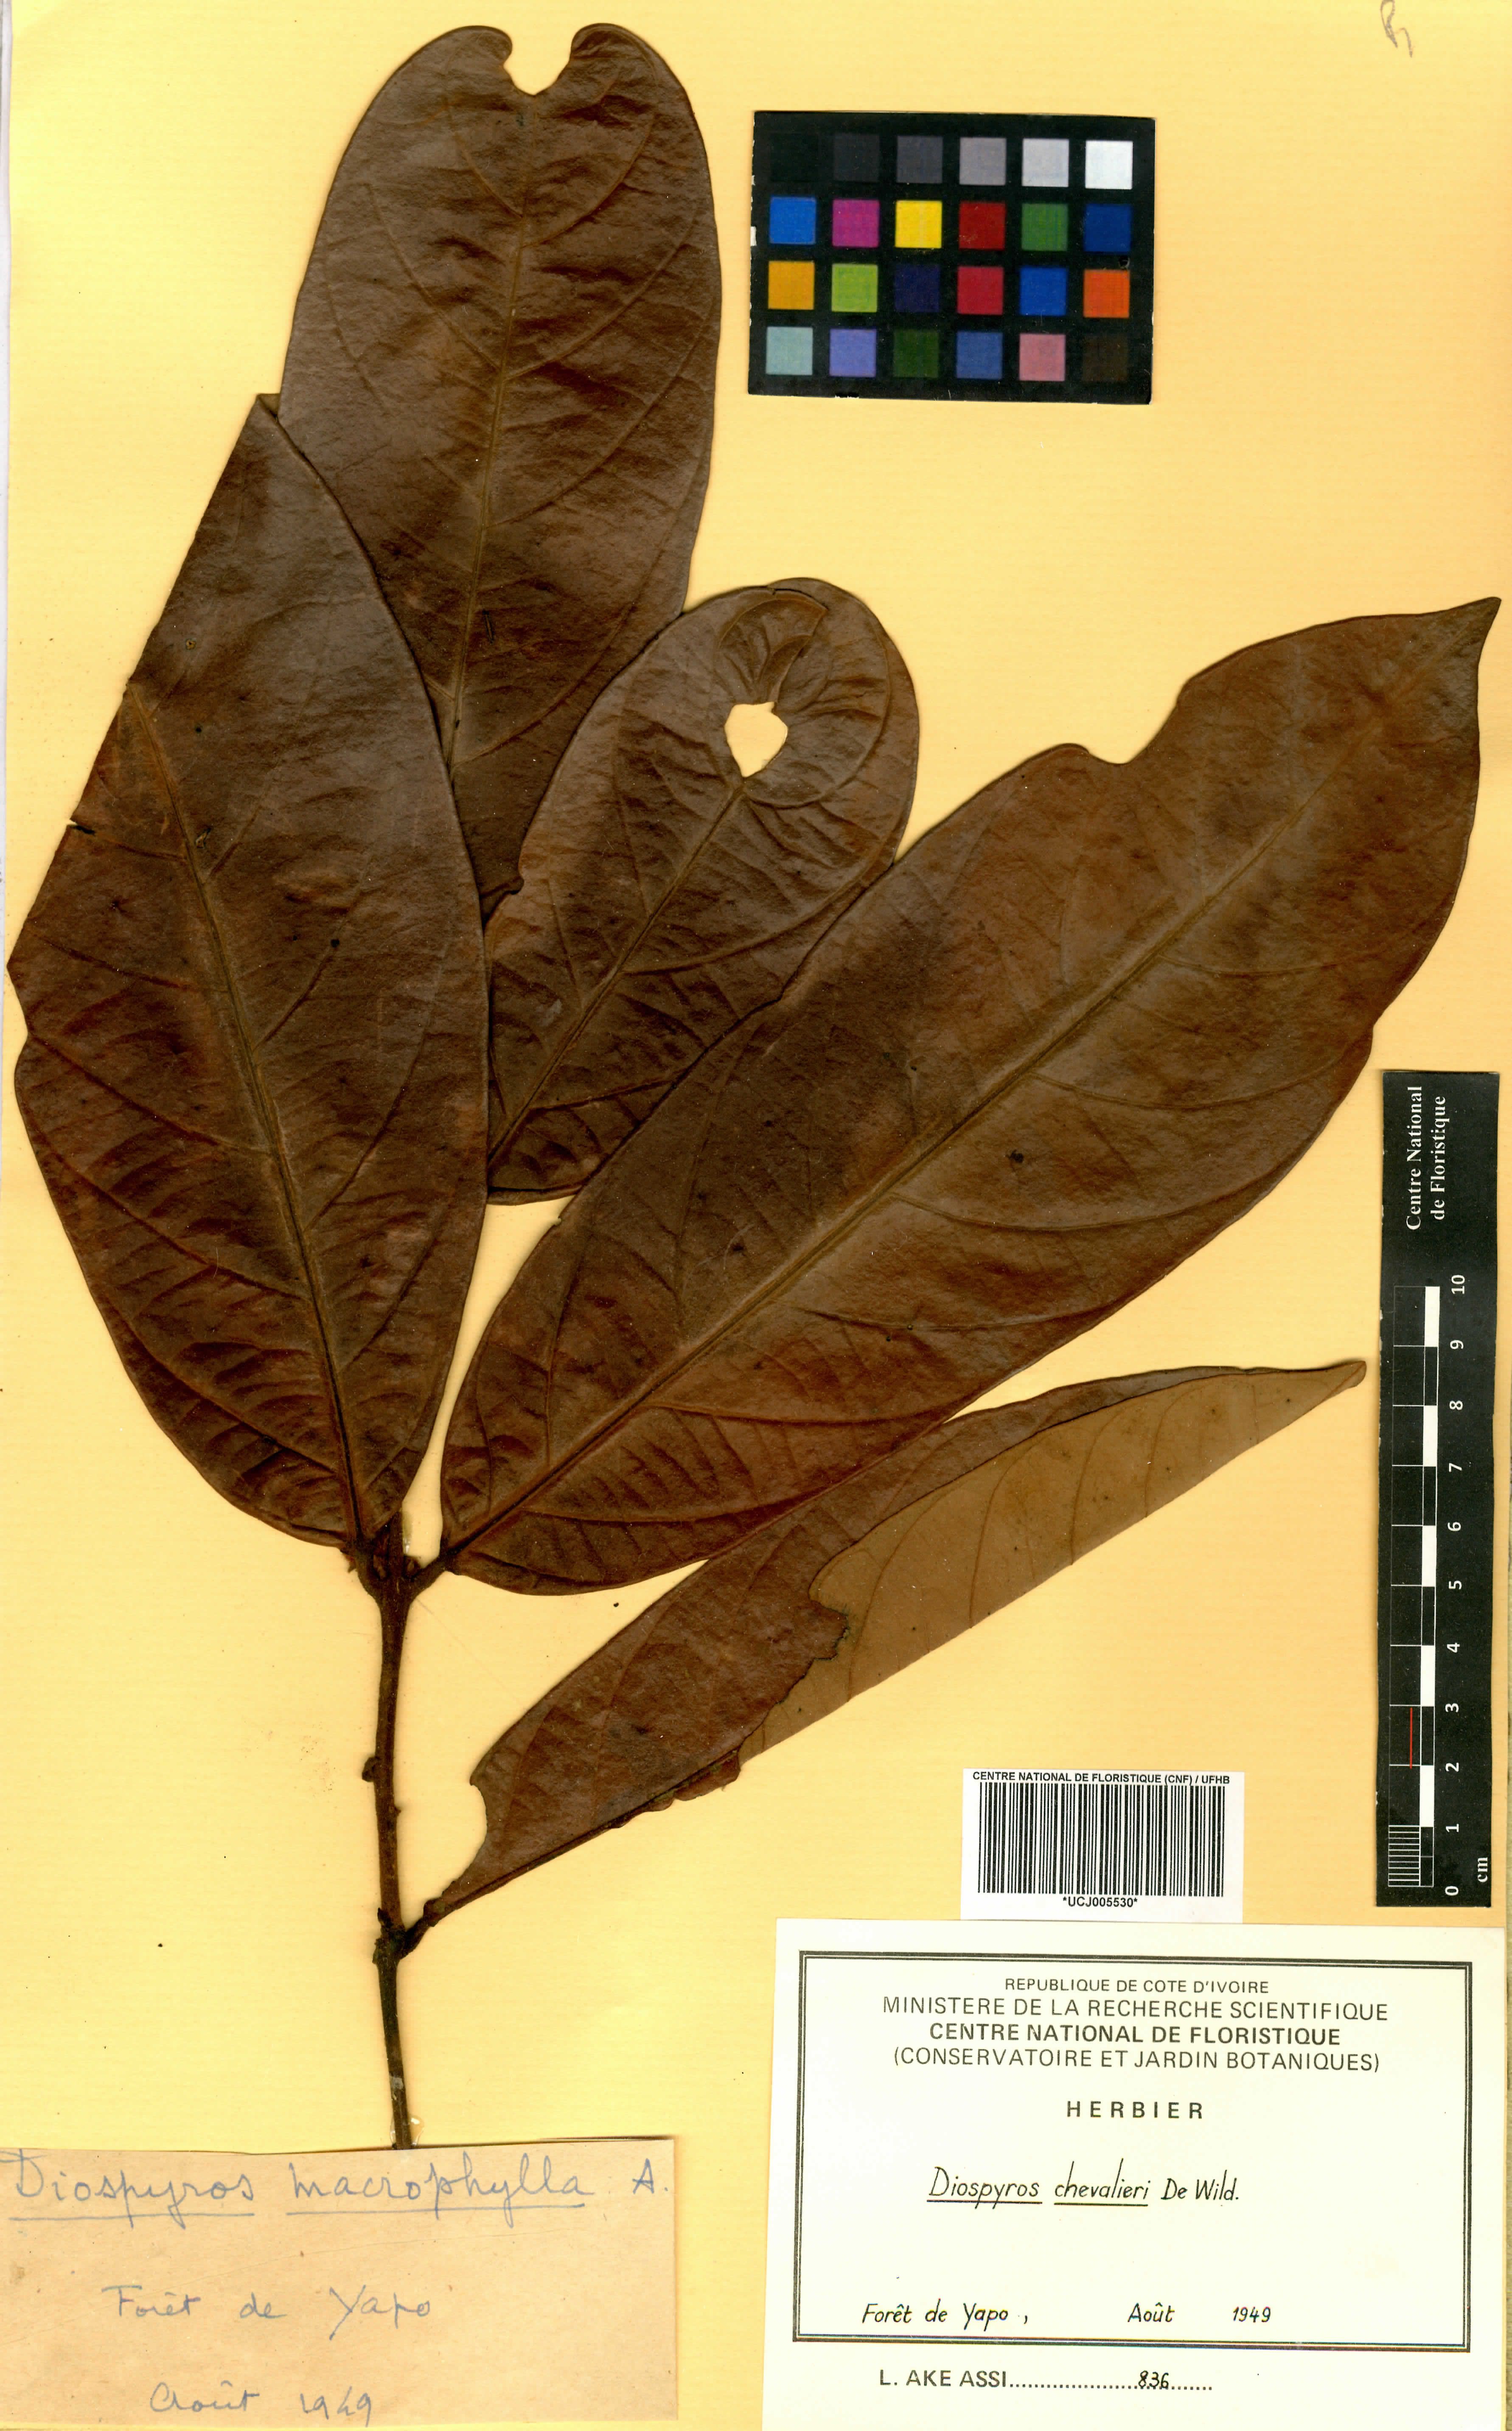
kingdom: Plantae
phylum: Tracheophyta
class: Magnoliopsida
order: Ericales
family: Ebenaceae
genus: Diospyros
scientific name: Diospyros chevalieri
